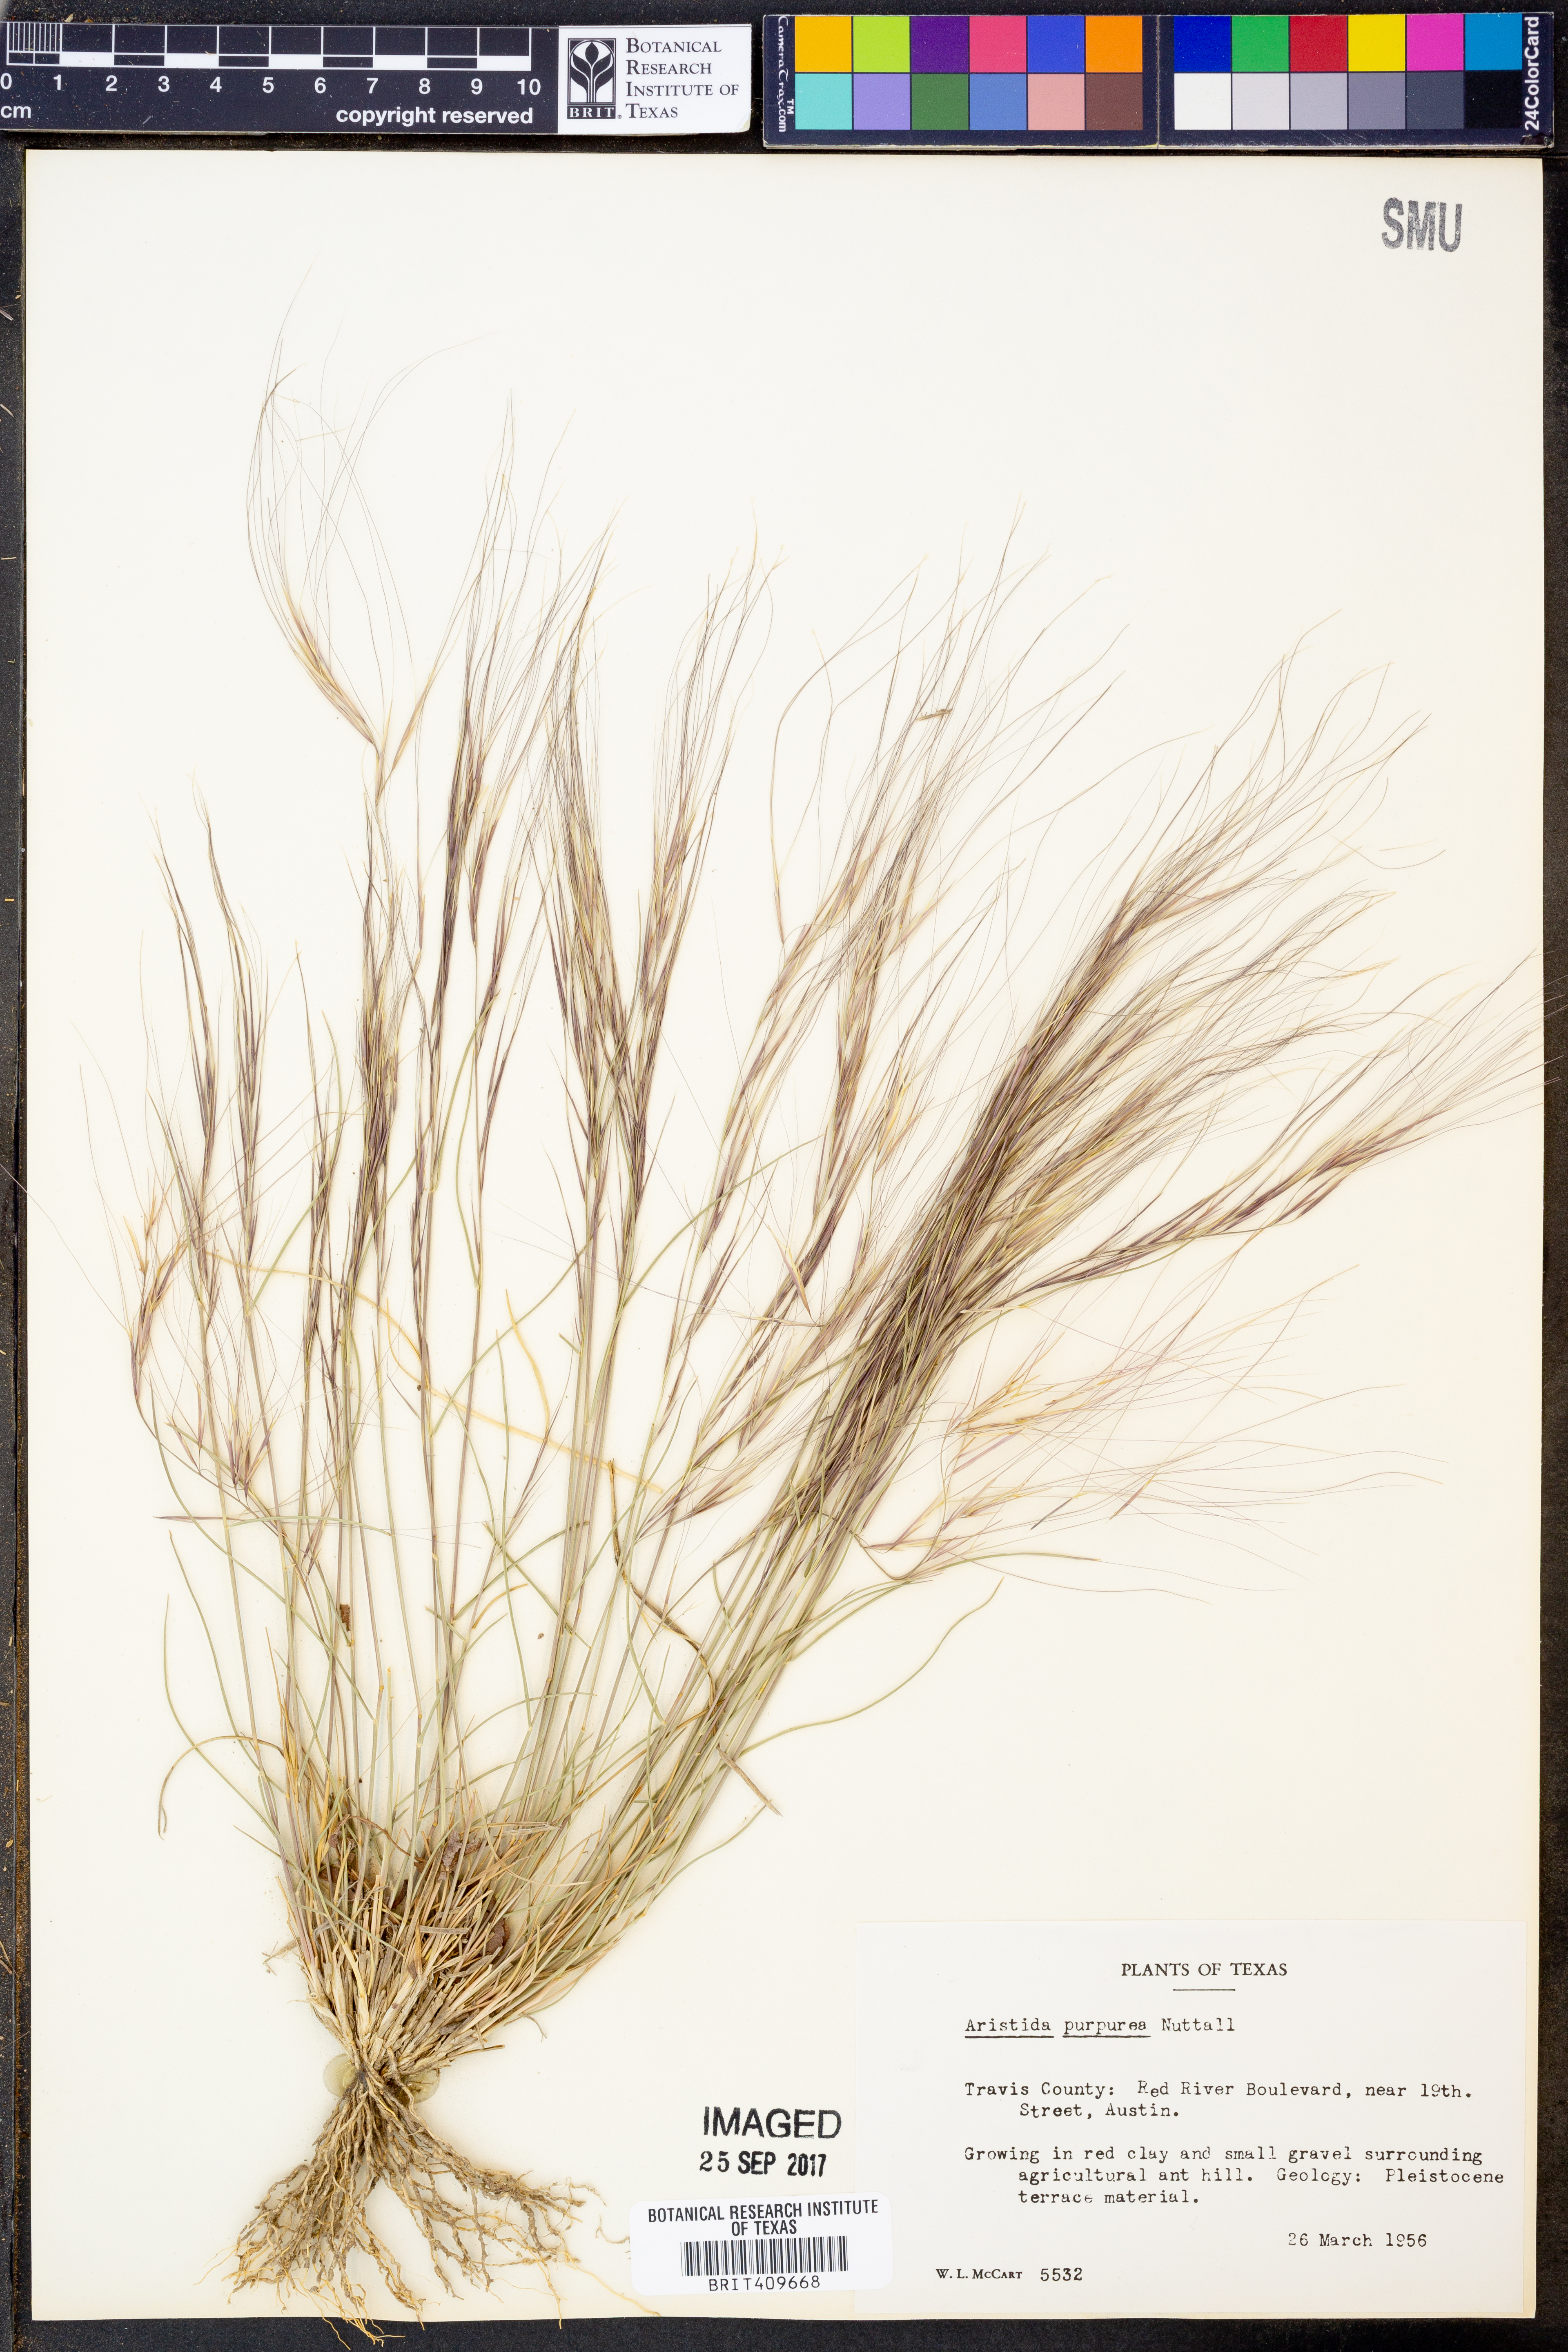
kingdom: Plantae
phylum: Tracheophyta
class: Liliopsida
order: Poales
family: Poaceae
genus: Aristida
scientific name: Aristida purpurea
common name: Purple threeawn
